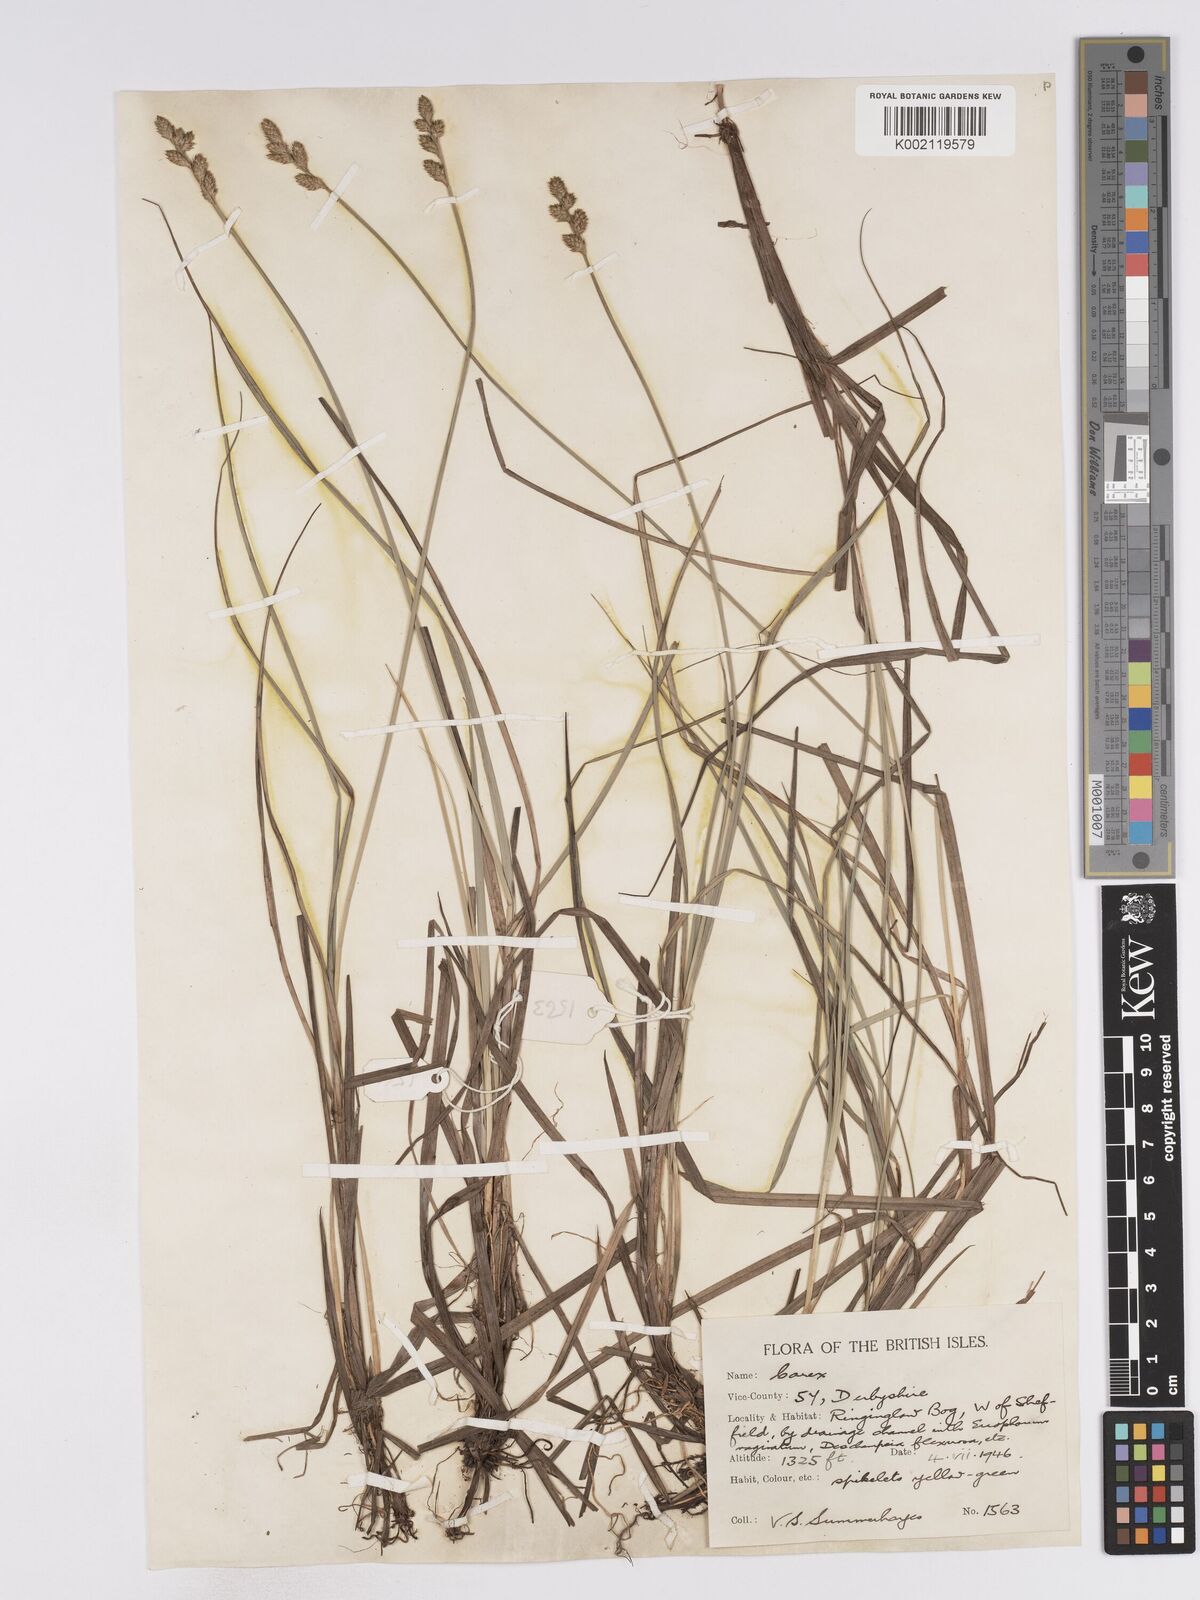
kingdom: Plantae
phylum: Tracheophyta
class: Liliopsida
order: Poales
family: Cyperaceae
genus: Carex
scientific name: Carex curta
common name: White sedge
